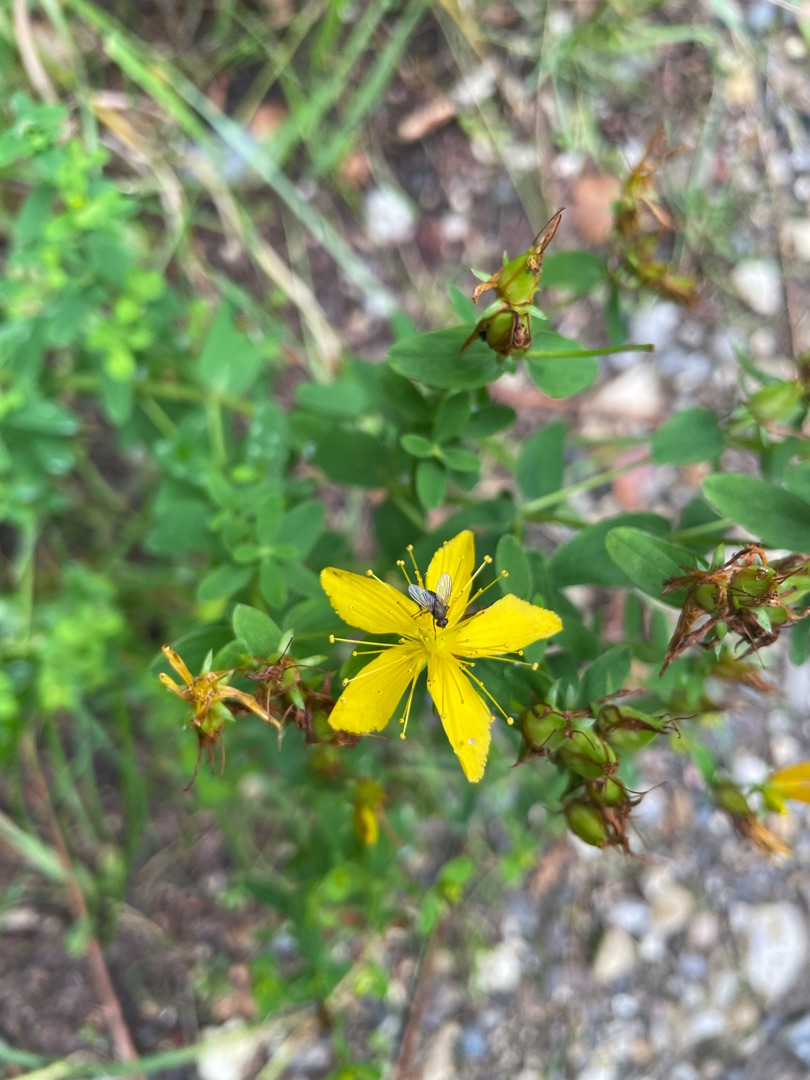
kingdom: Plantae
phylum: Tracheophyta
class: Magnoliopsida
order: Malpighiales
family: Hypericaceae
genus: Hypericum
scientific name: Hypericum perforatum
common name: Prikbladet perikon
